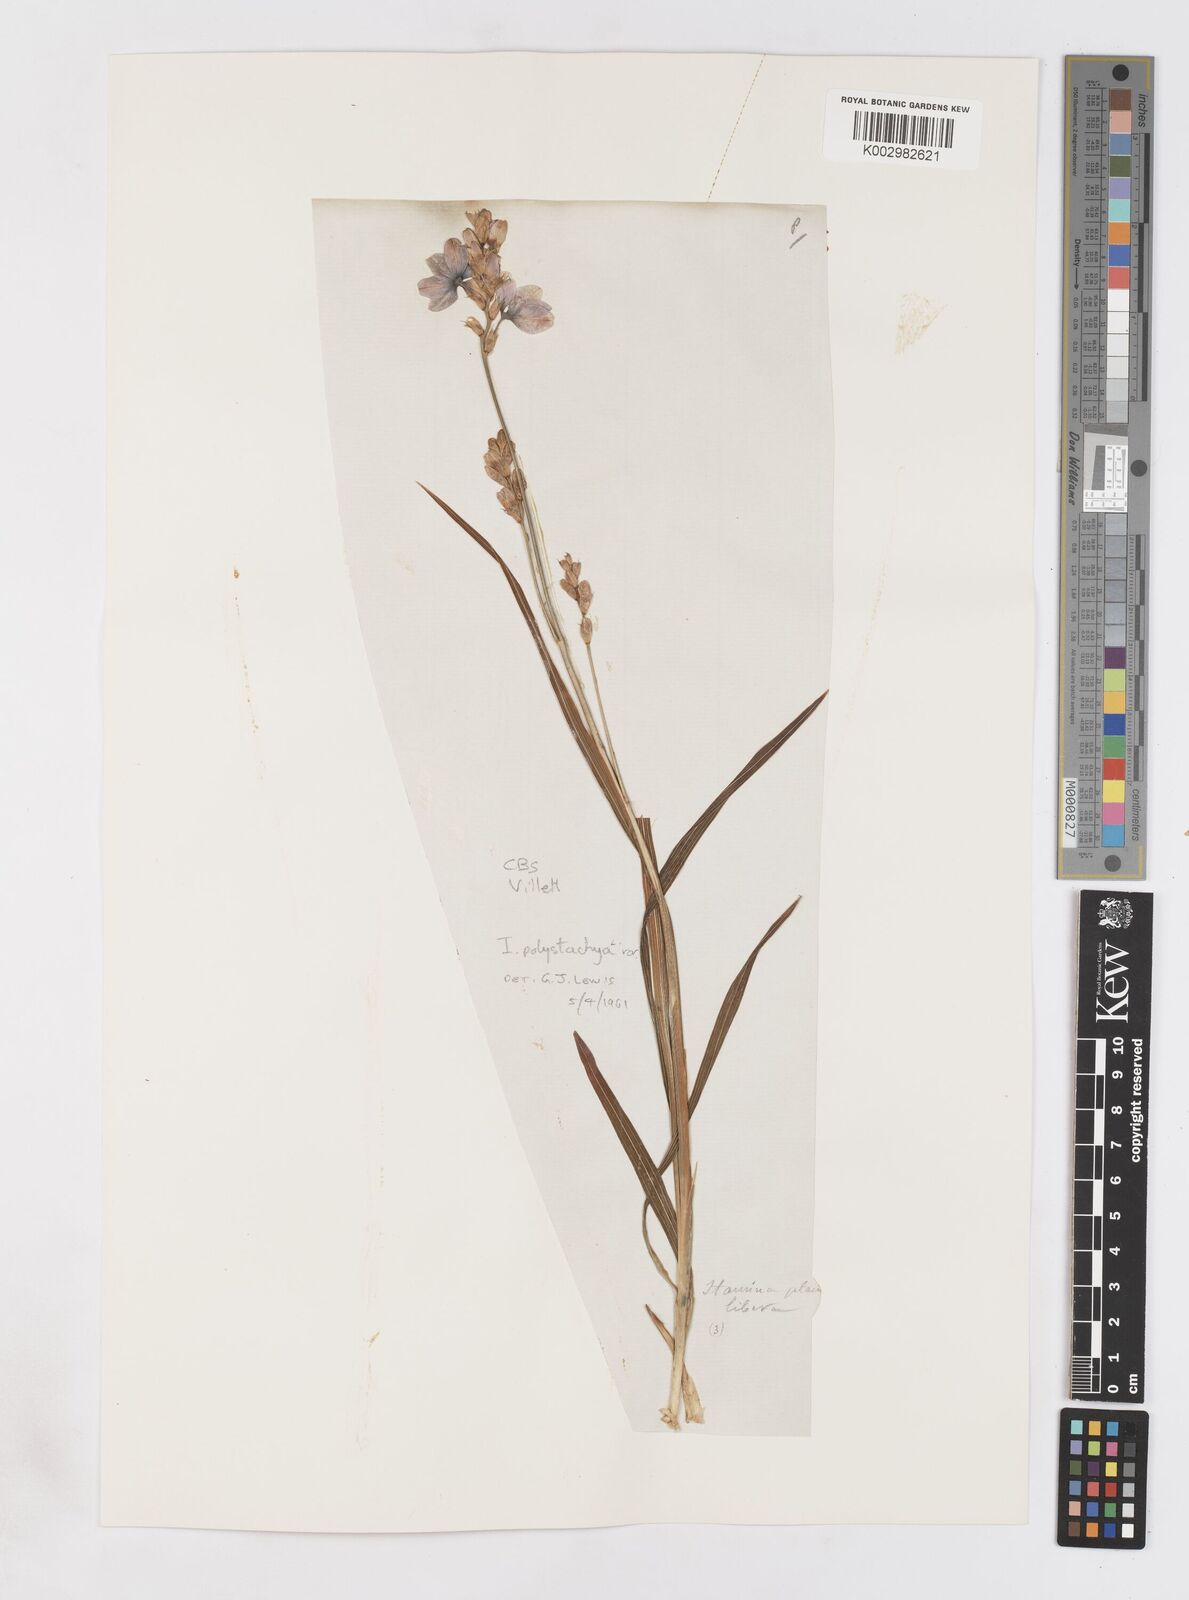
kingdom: Plantae
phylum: Tracheophyta
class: Liliopsida
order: Asparagales
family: Iridaceae
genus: Ixia
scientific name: Ixia polystachya
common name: White-and-yellow-flower cornlily
